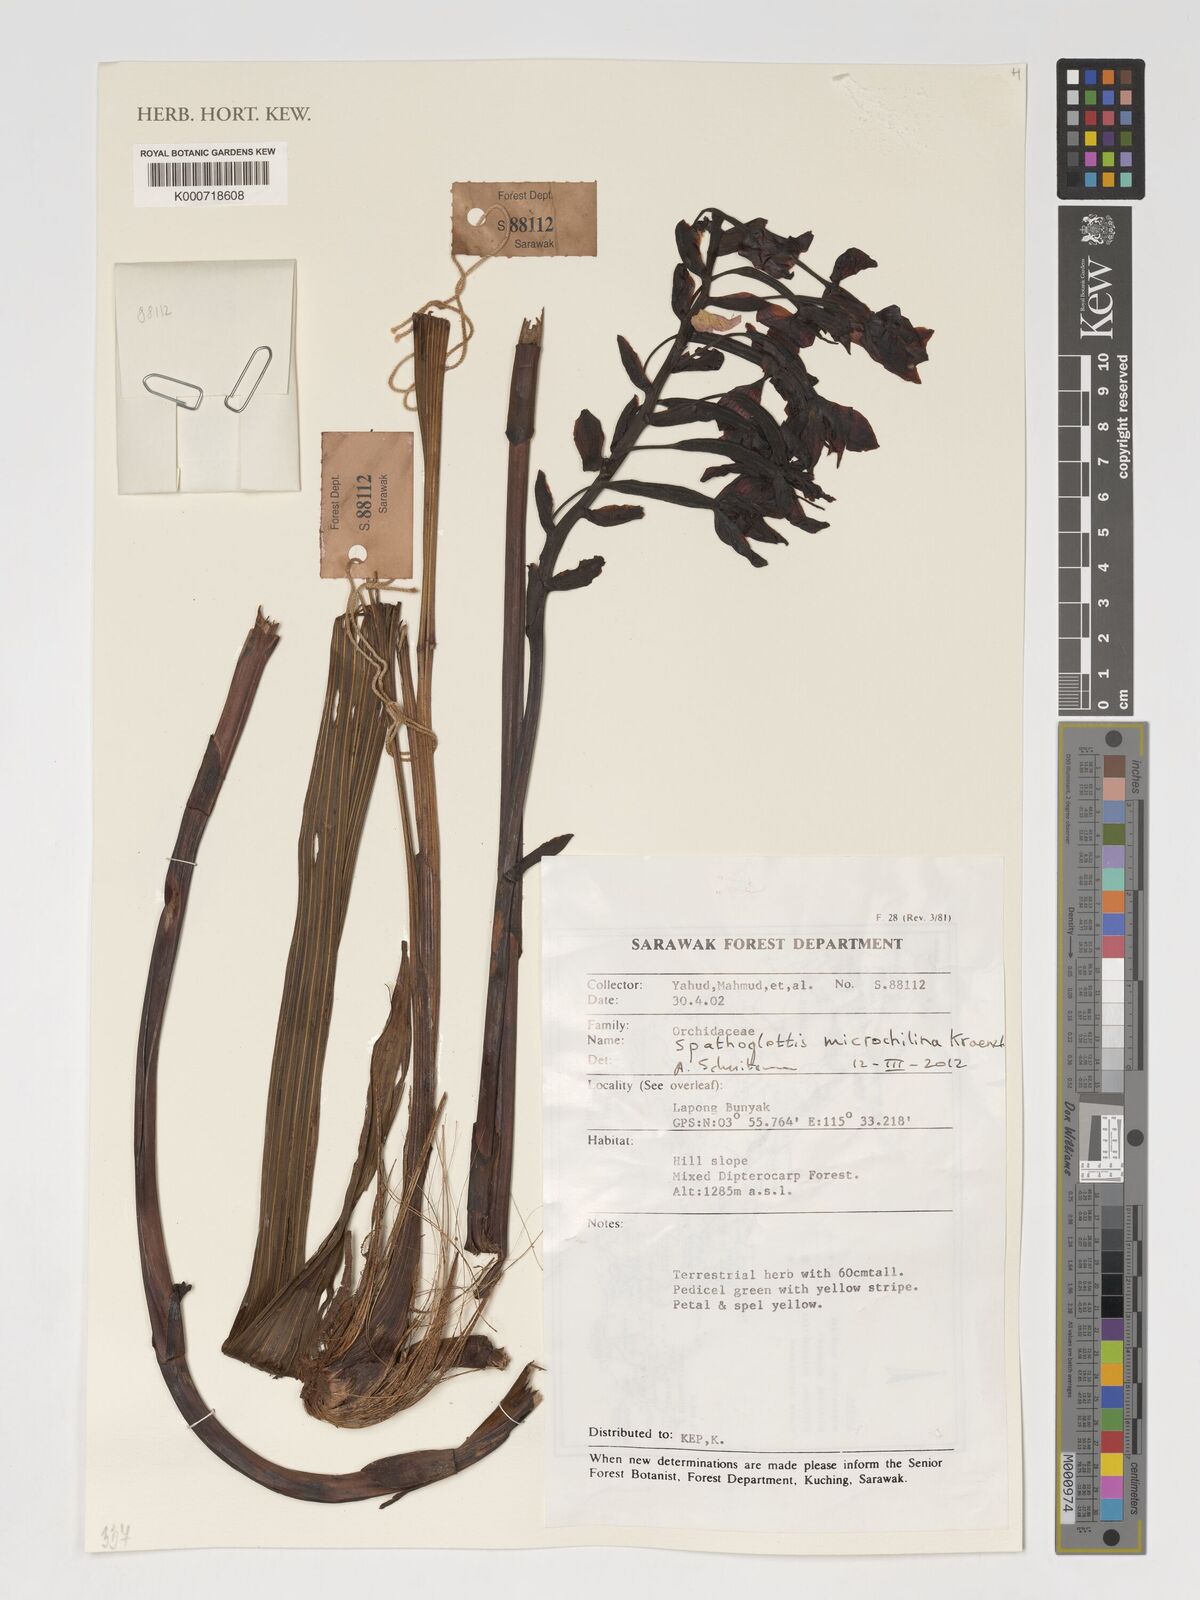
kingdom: Plantae
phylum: Tracheophyta
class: Liliopsida
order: Asparagales
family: Orchidaceae
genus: Spathoglottis
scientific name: Spathoglottis microchilina
